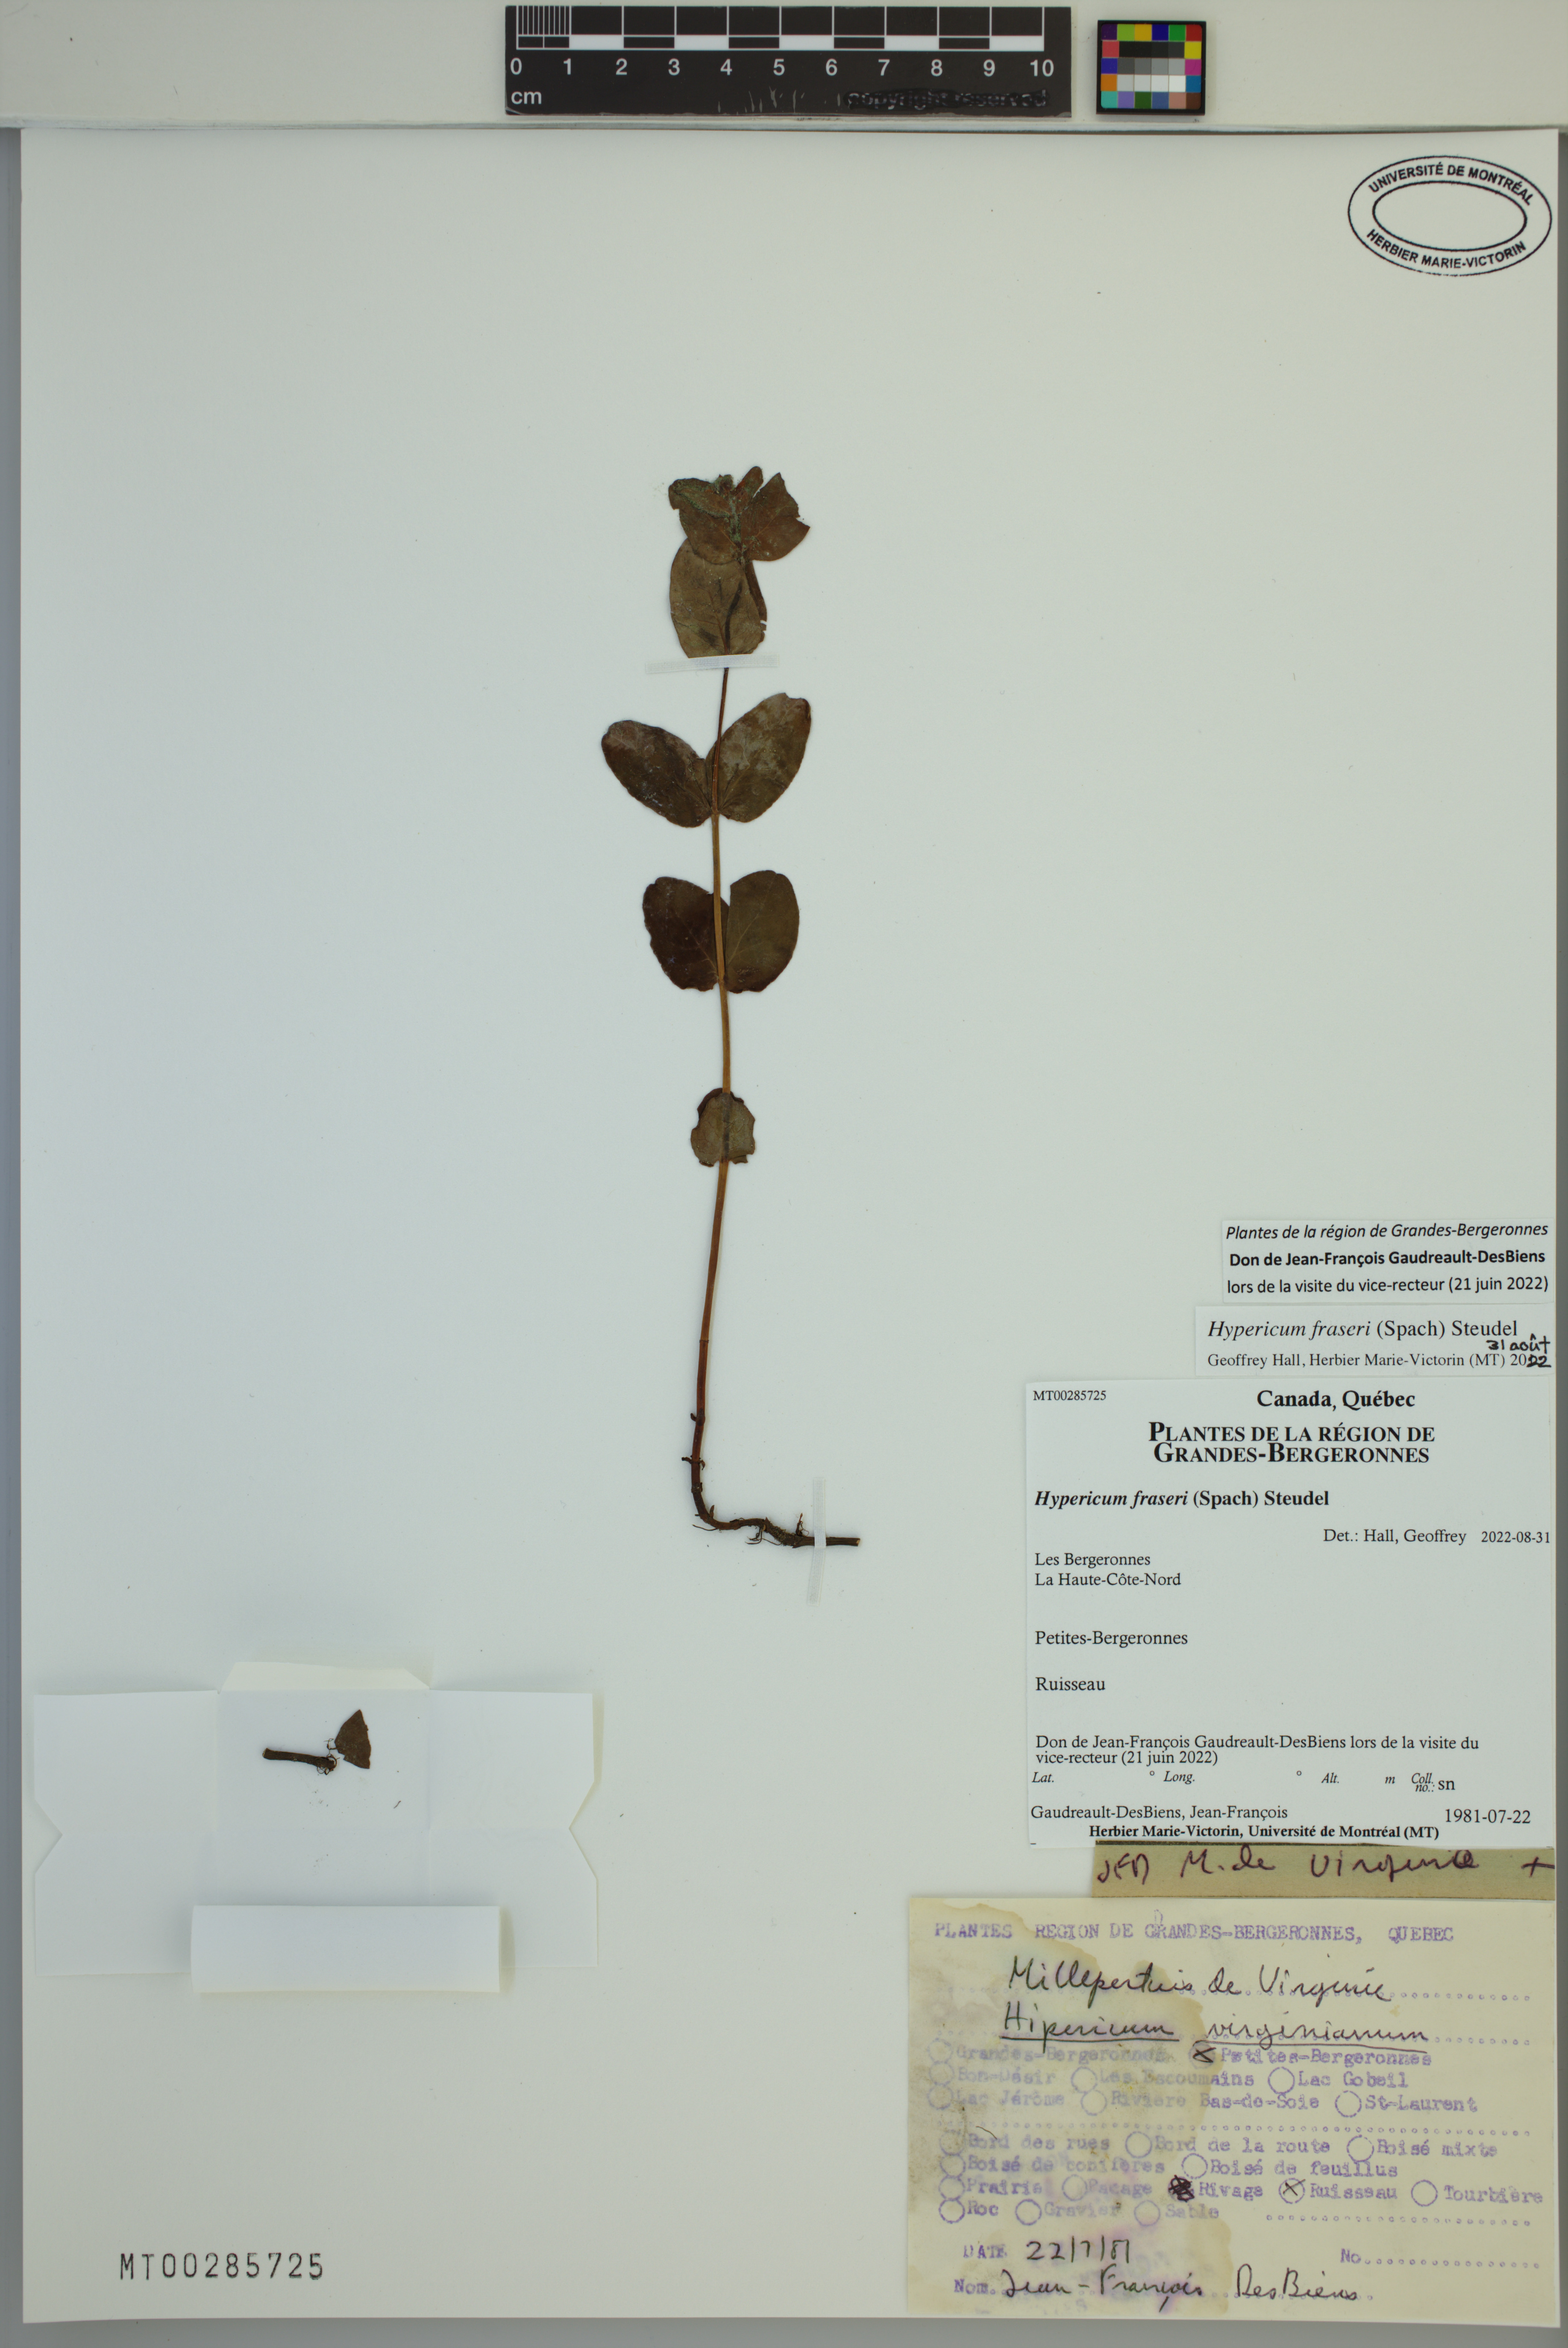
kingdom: Plantae
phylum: Tracheophyta
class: Magnoliopsida
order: Malpighiales
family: Hypericaceae
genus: Triadenum
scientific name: Triadenum fraseri
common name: Fraser's marsh st. johnswort
